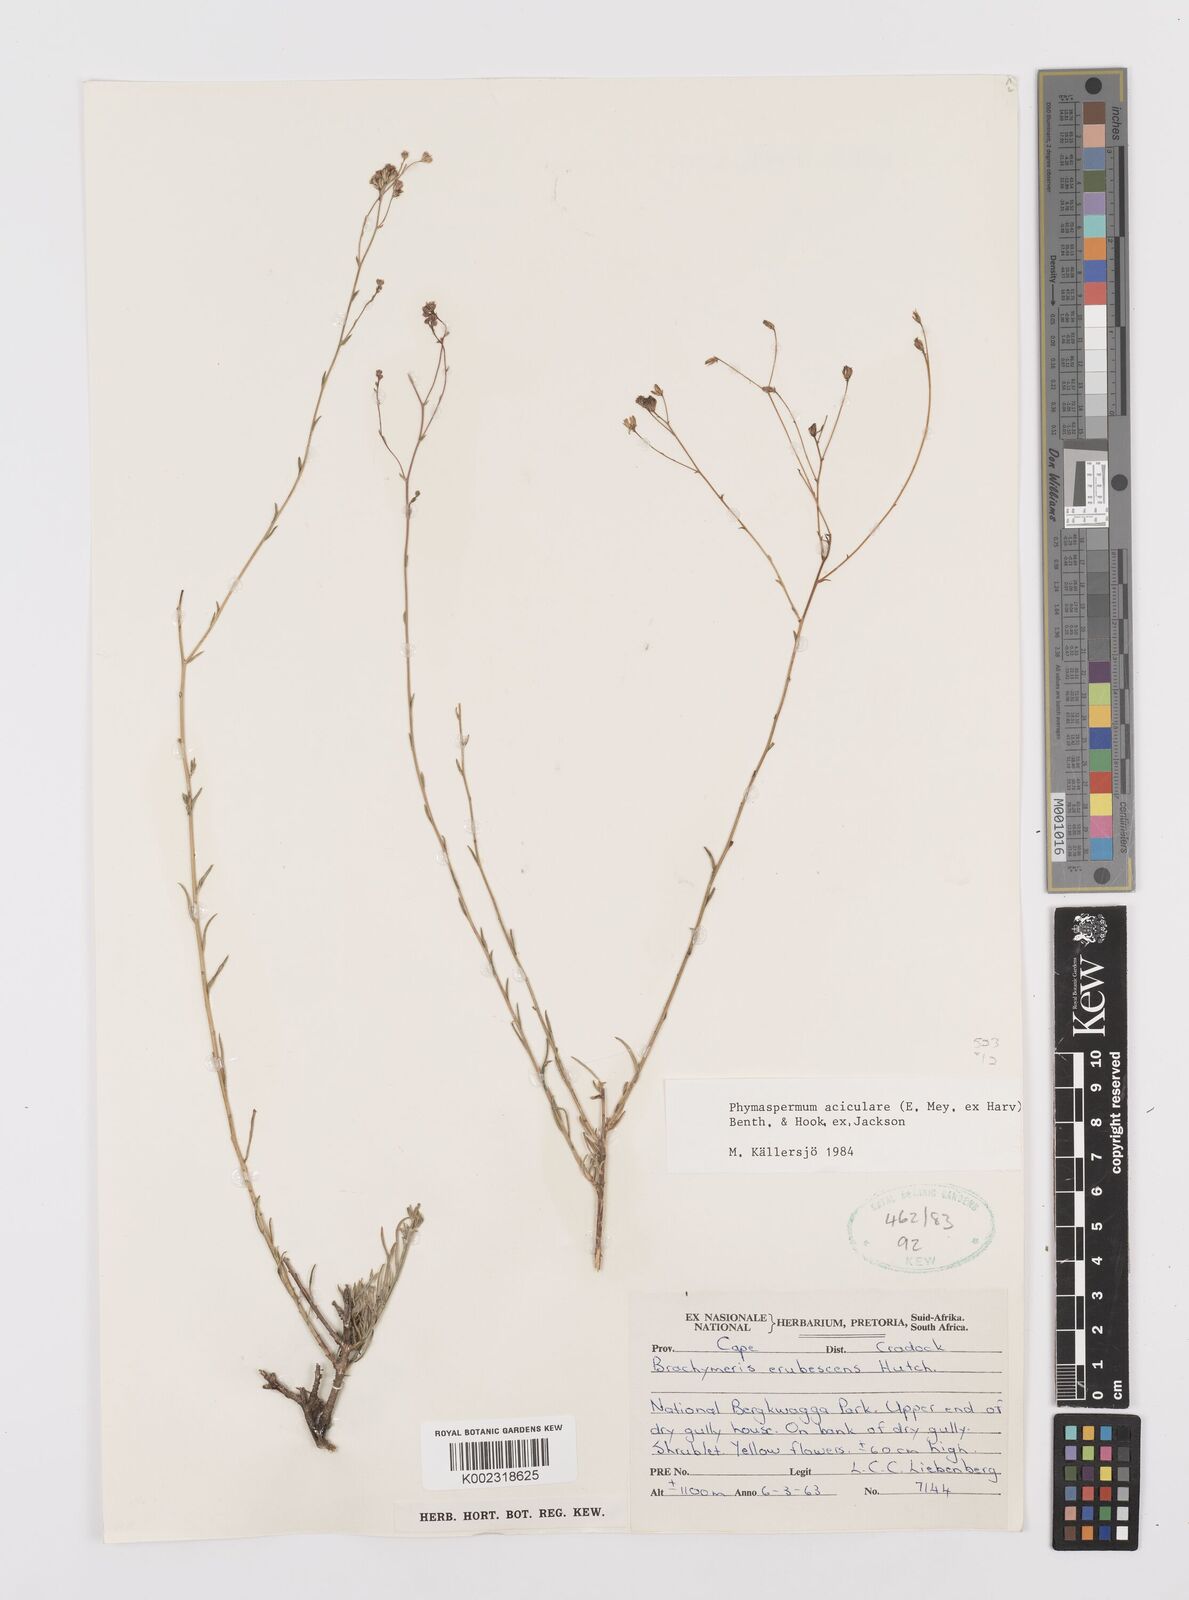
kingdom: Plantae
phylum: Tracheophyta
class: Magnoliopsida
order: Asterales
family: Asteraceae
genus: Phymaspermum
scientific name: Phymaspermum aciculare
